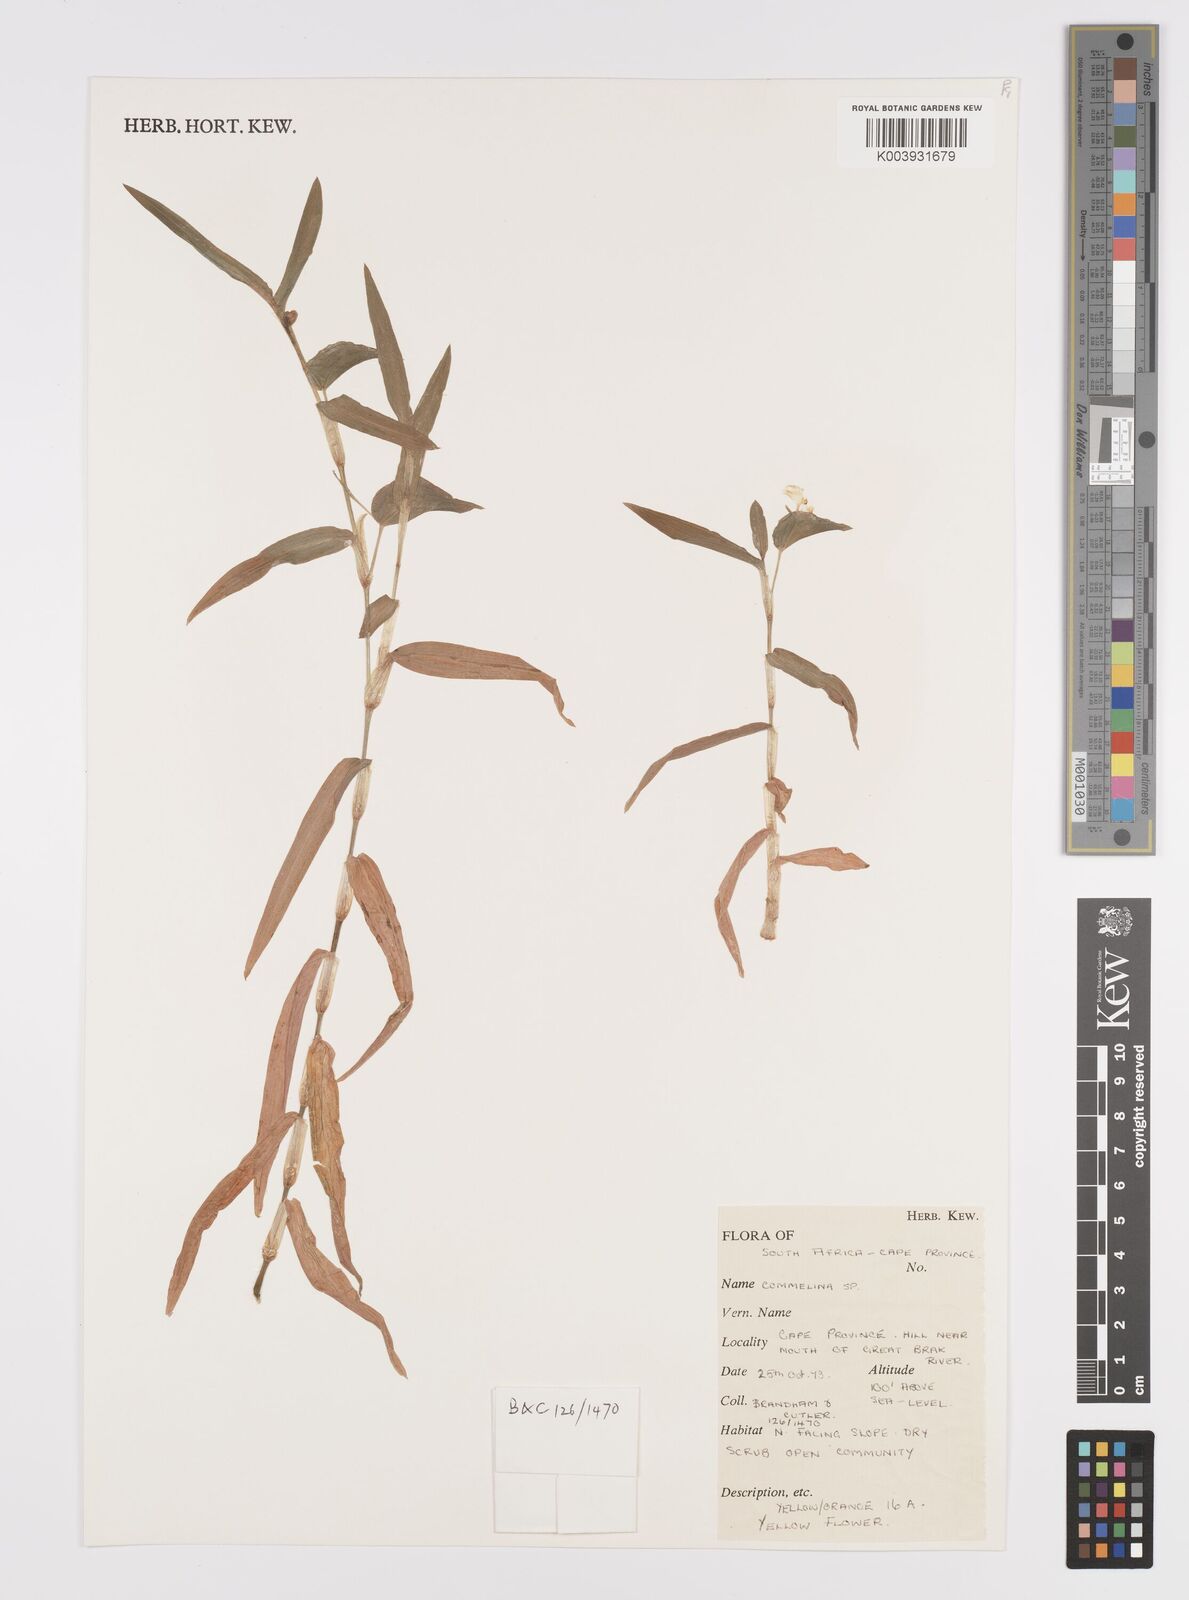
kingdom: Plantae
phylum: Tracheophyta
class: Liliopsida
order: Commelinales
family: Commelinaceae
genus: Commelina
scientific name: Commelina africana
